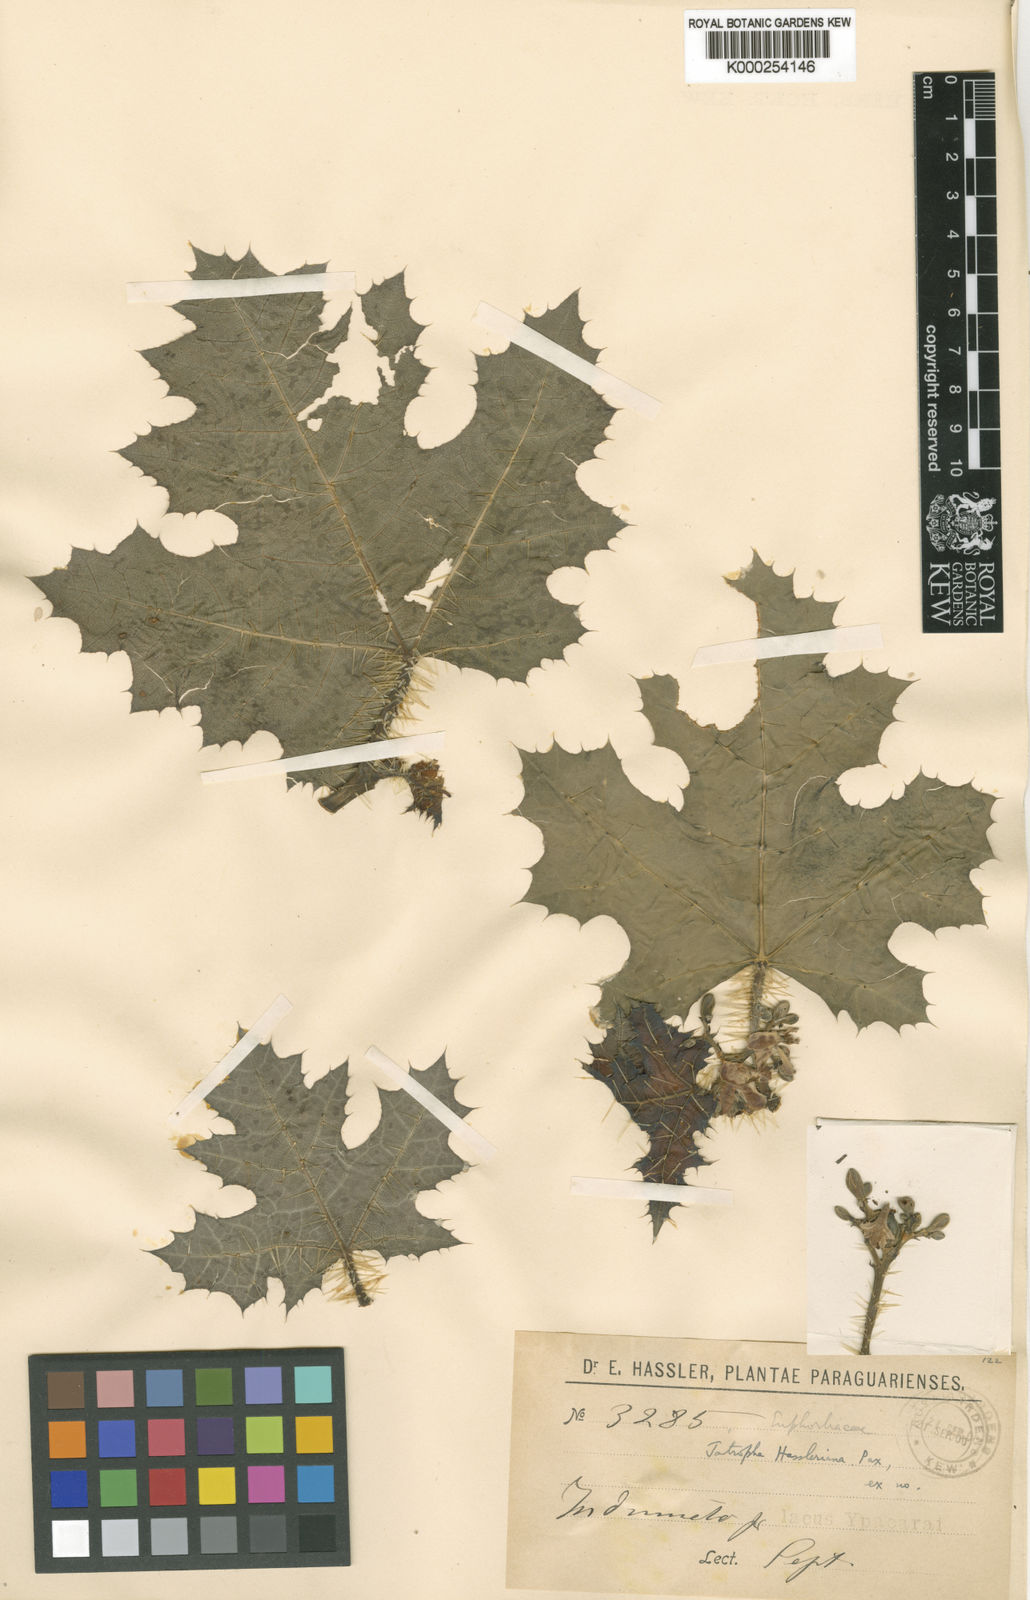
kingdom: Plantae
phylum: Tracheophyta
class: Magnoliopsida
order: Malpighiales
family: Euphorbiaceae
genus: Cnidoscolus
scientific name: Cnidoscolus albomaculatus
